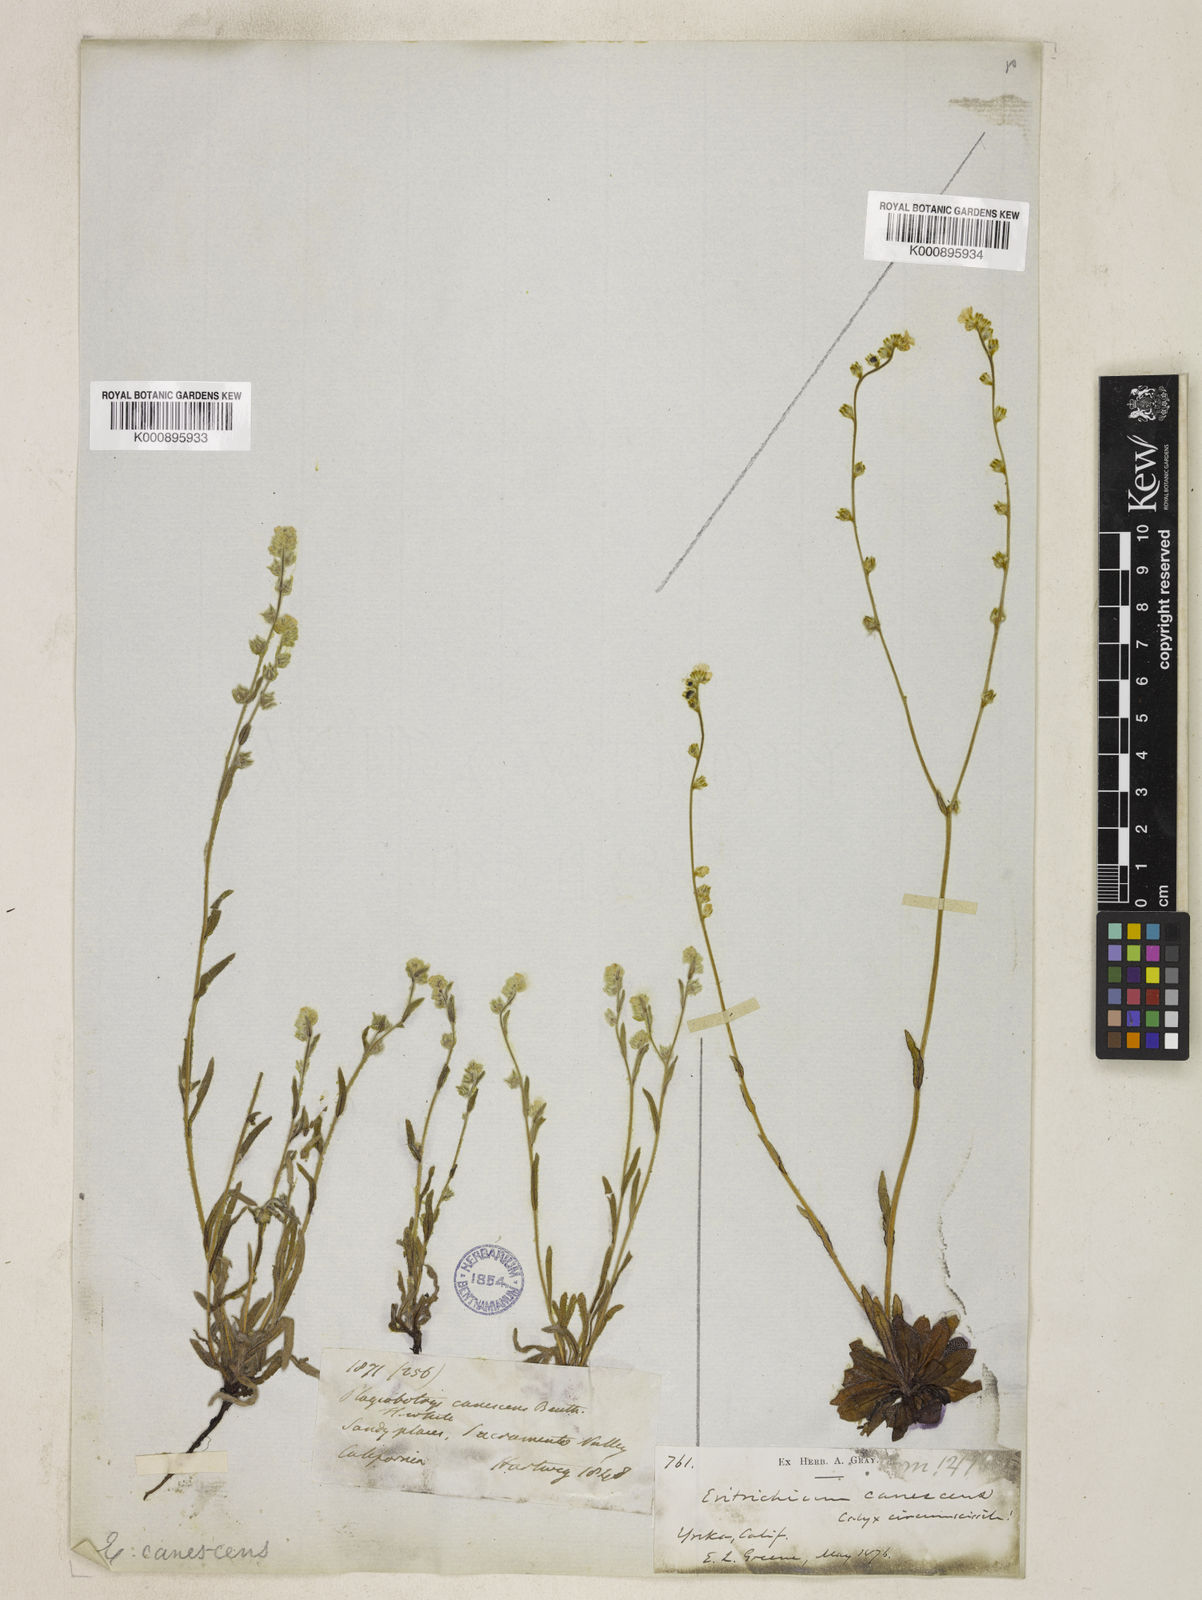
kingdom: Plantae
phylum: Tracheophyta
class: Magnoliopsida
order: Boraginales
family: Boraginaceae
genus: Plagiobothrys
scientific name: Plagiobothrys canescens
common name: Valley popcorn-flower
